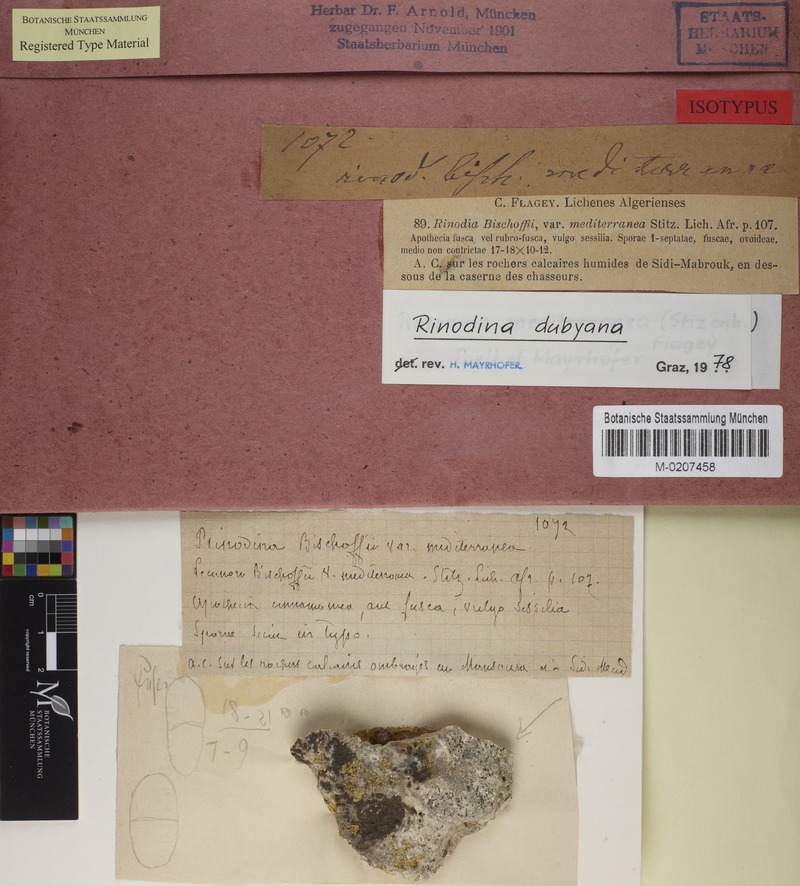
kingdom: Fungi
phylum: Ascomycota
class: Lecanoromycetes
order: Caliciales
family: Physciaceae
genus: Rinodina
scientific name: Rinodina dubyana
